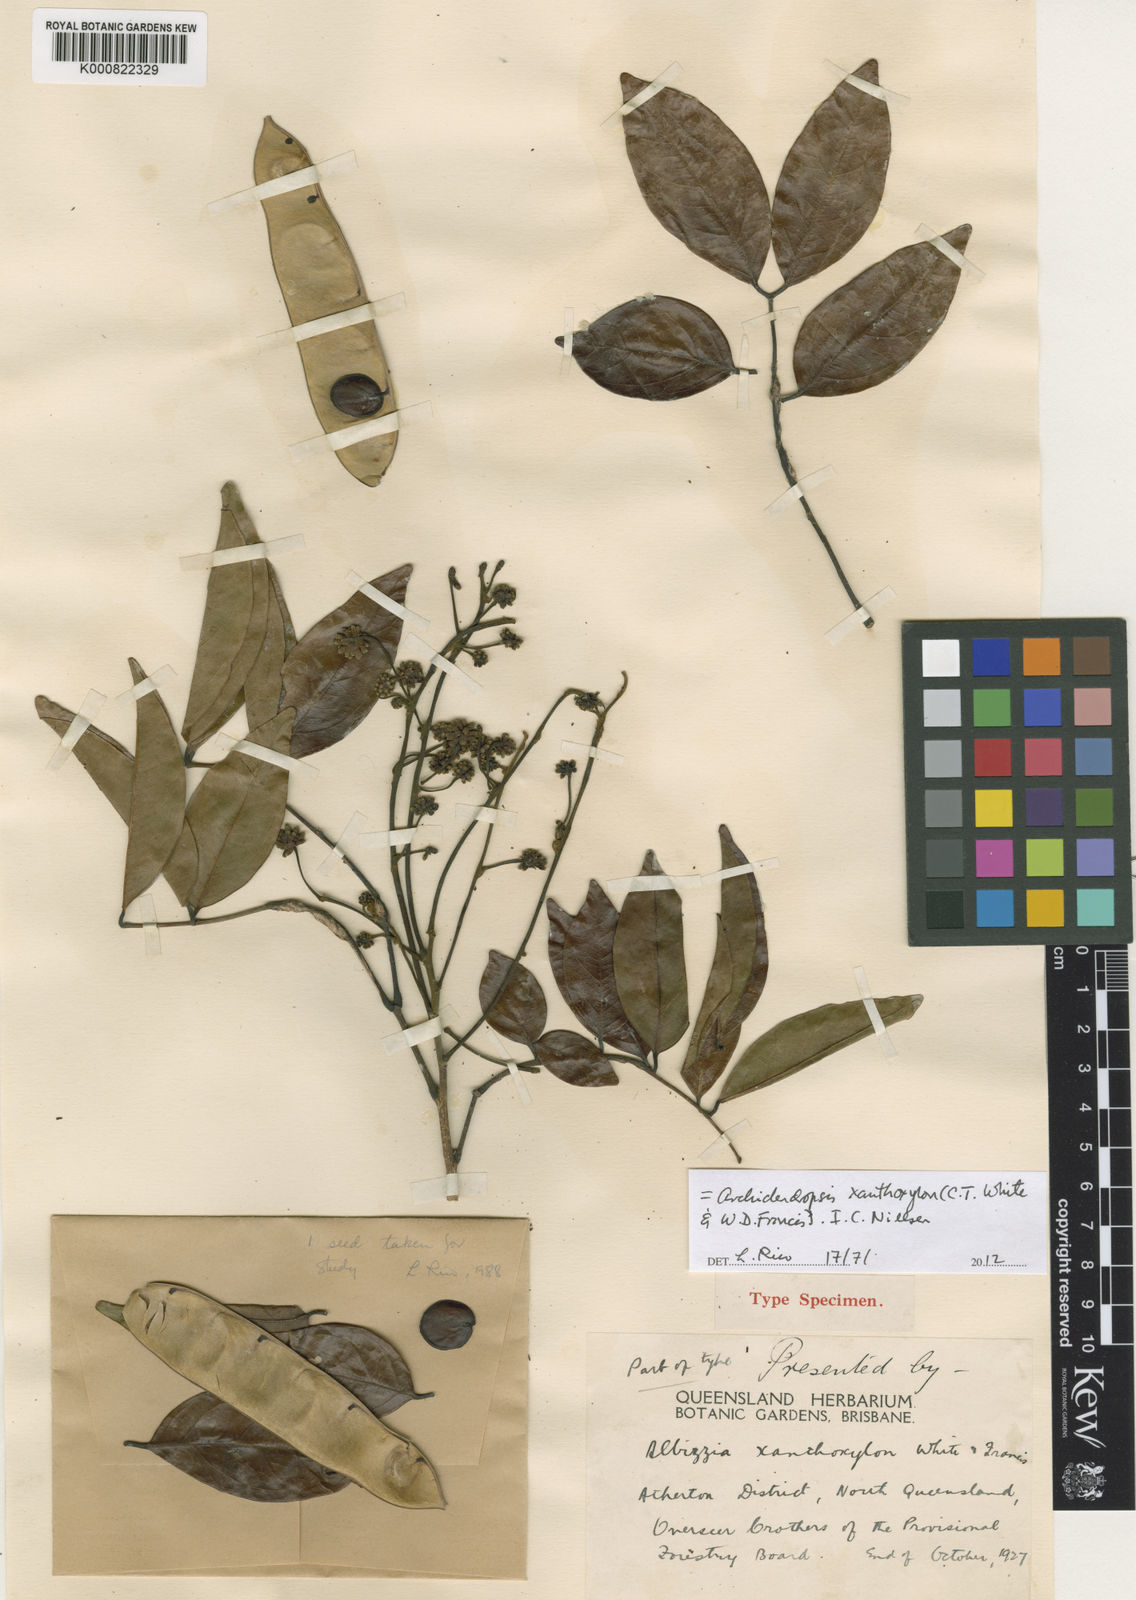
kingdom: Plantae
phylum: Tracheophyta
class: Magnoliopsida
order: Fabales
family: Fabaceae
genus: Archidendropsis
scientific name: Archidendropsis xanthoxylon
